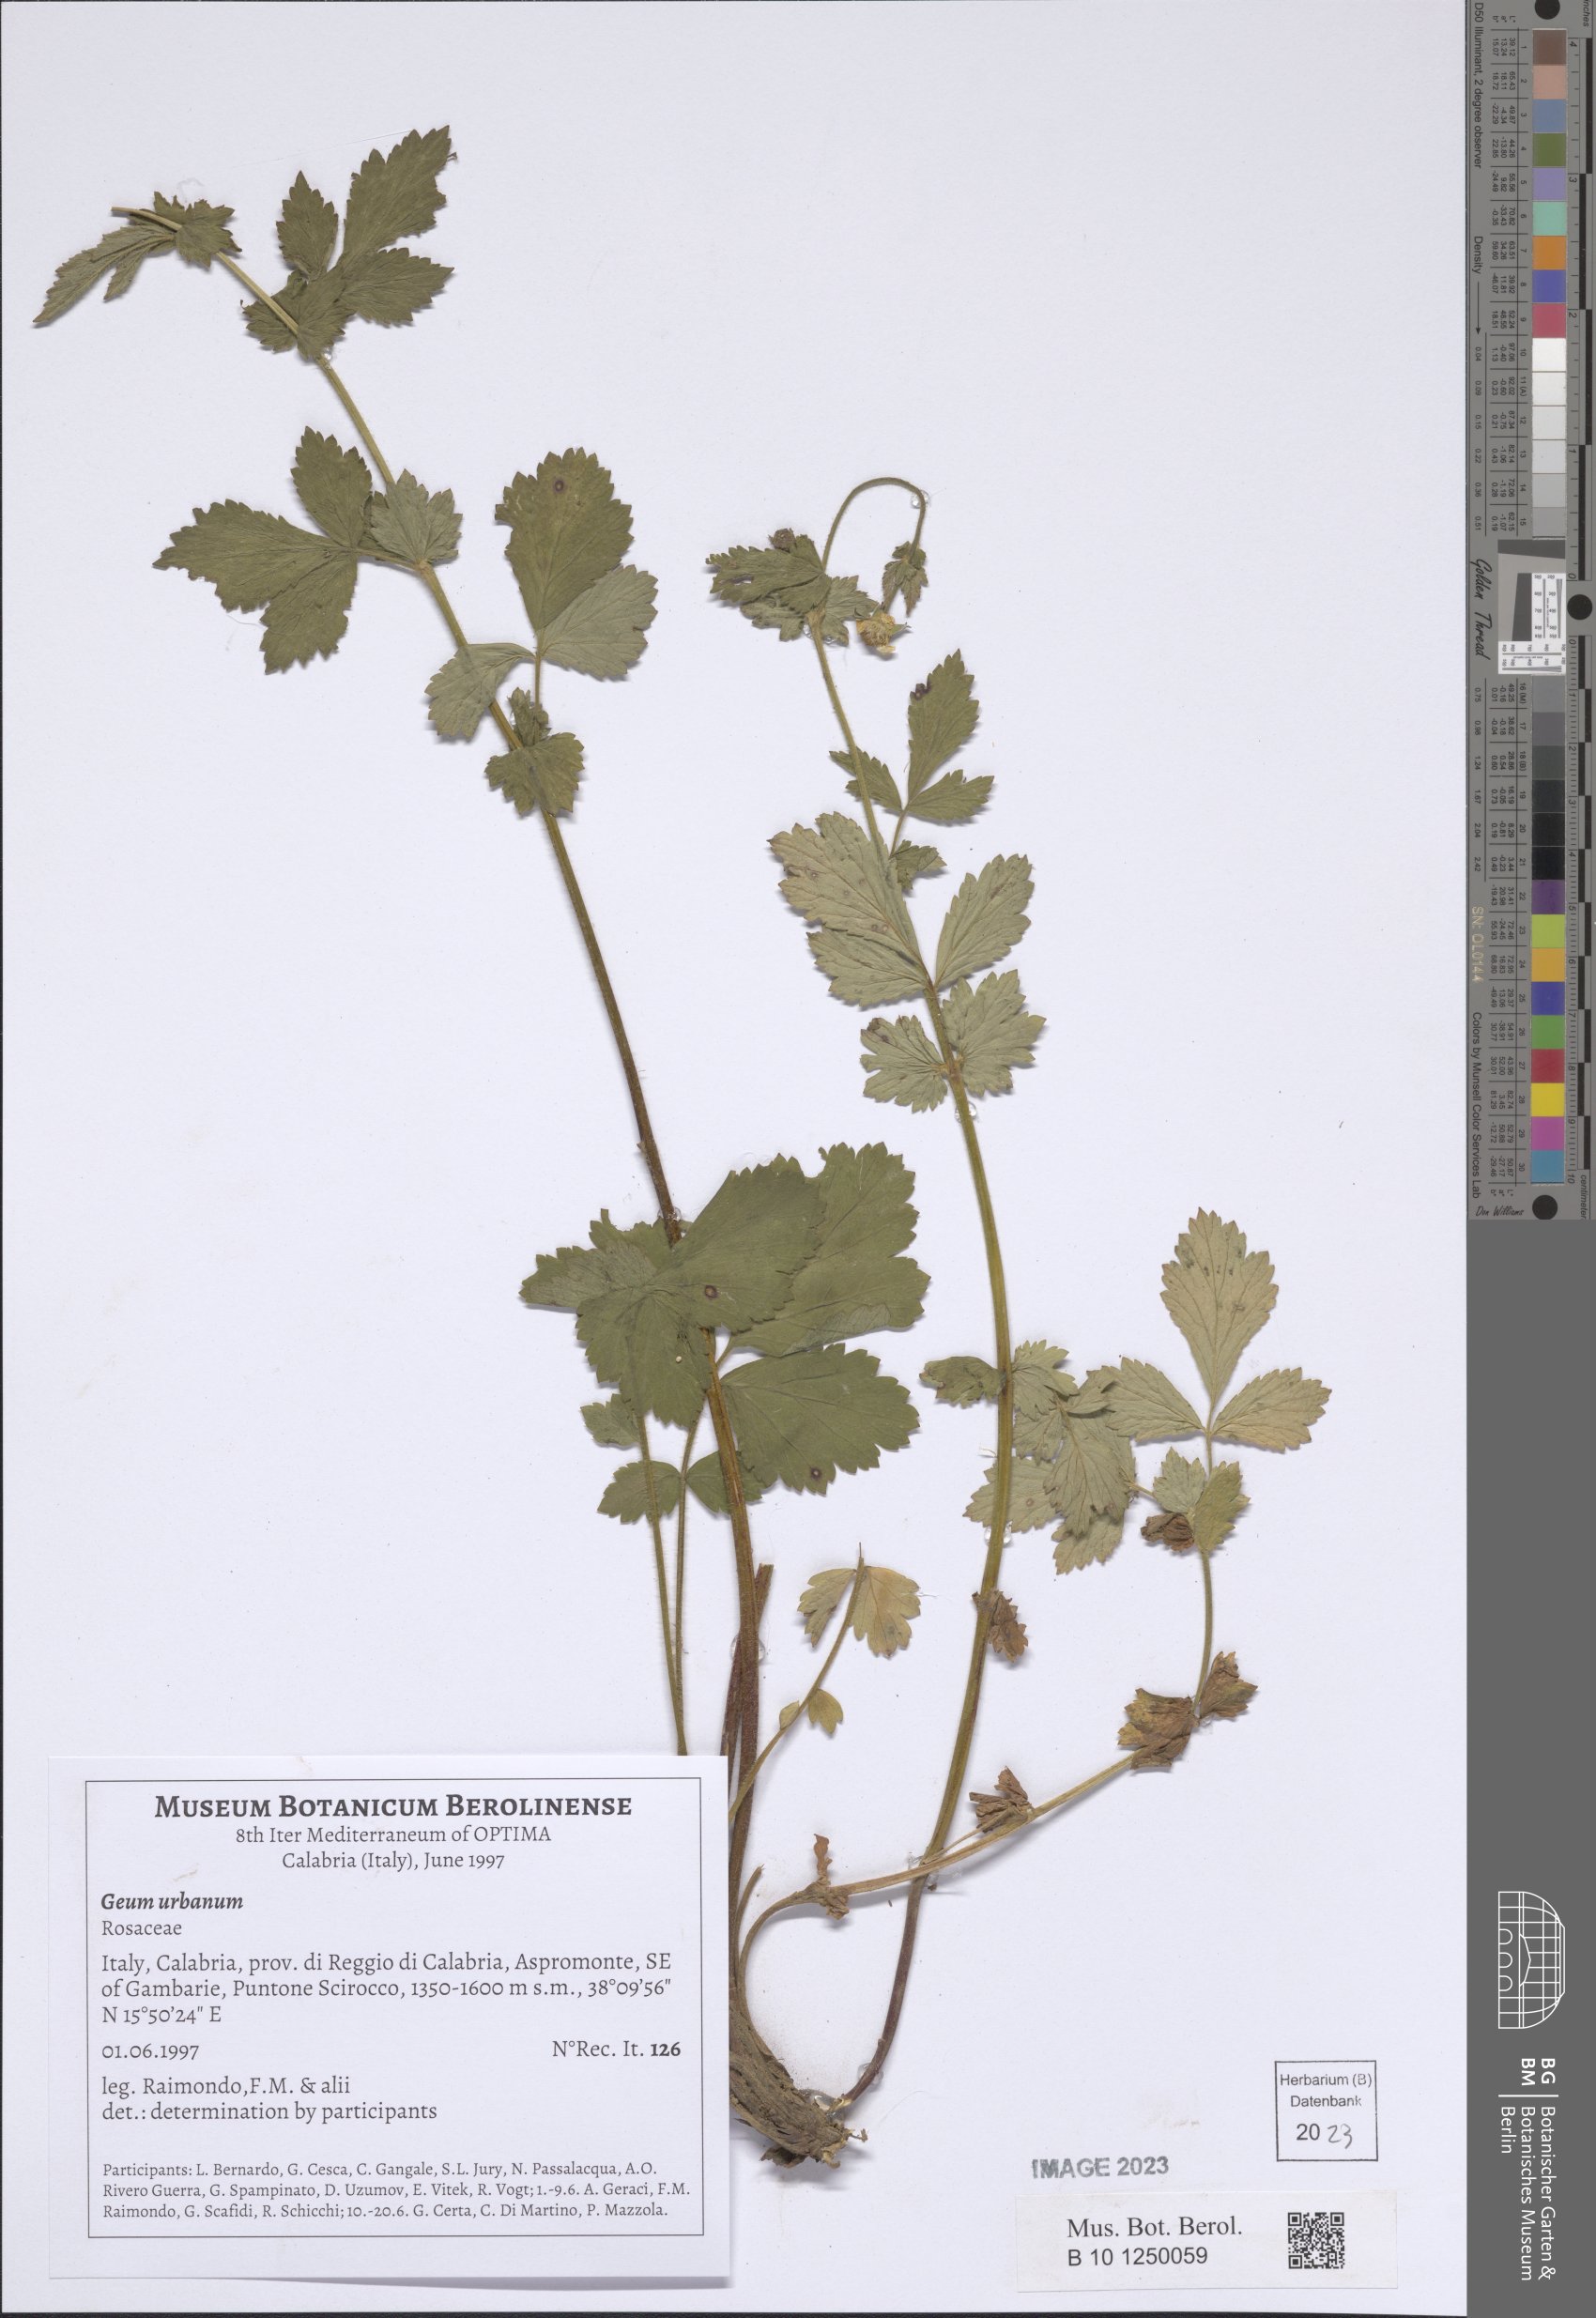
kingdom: Plantae
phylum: Tracheophyta
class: Magnoliopsida
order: Rosales
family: Rosaceae
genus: Geum
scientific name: Geum urbanum
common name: Wood avens
